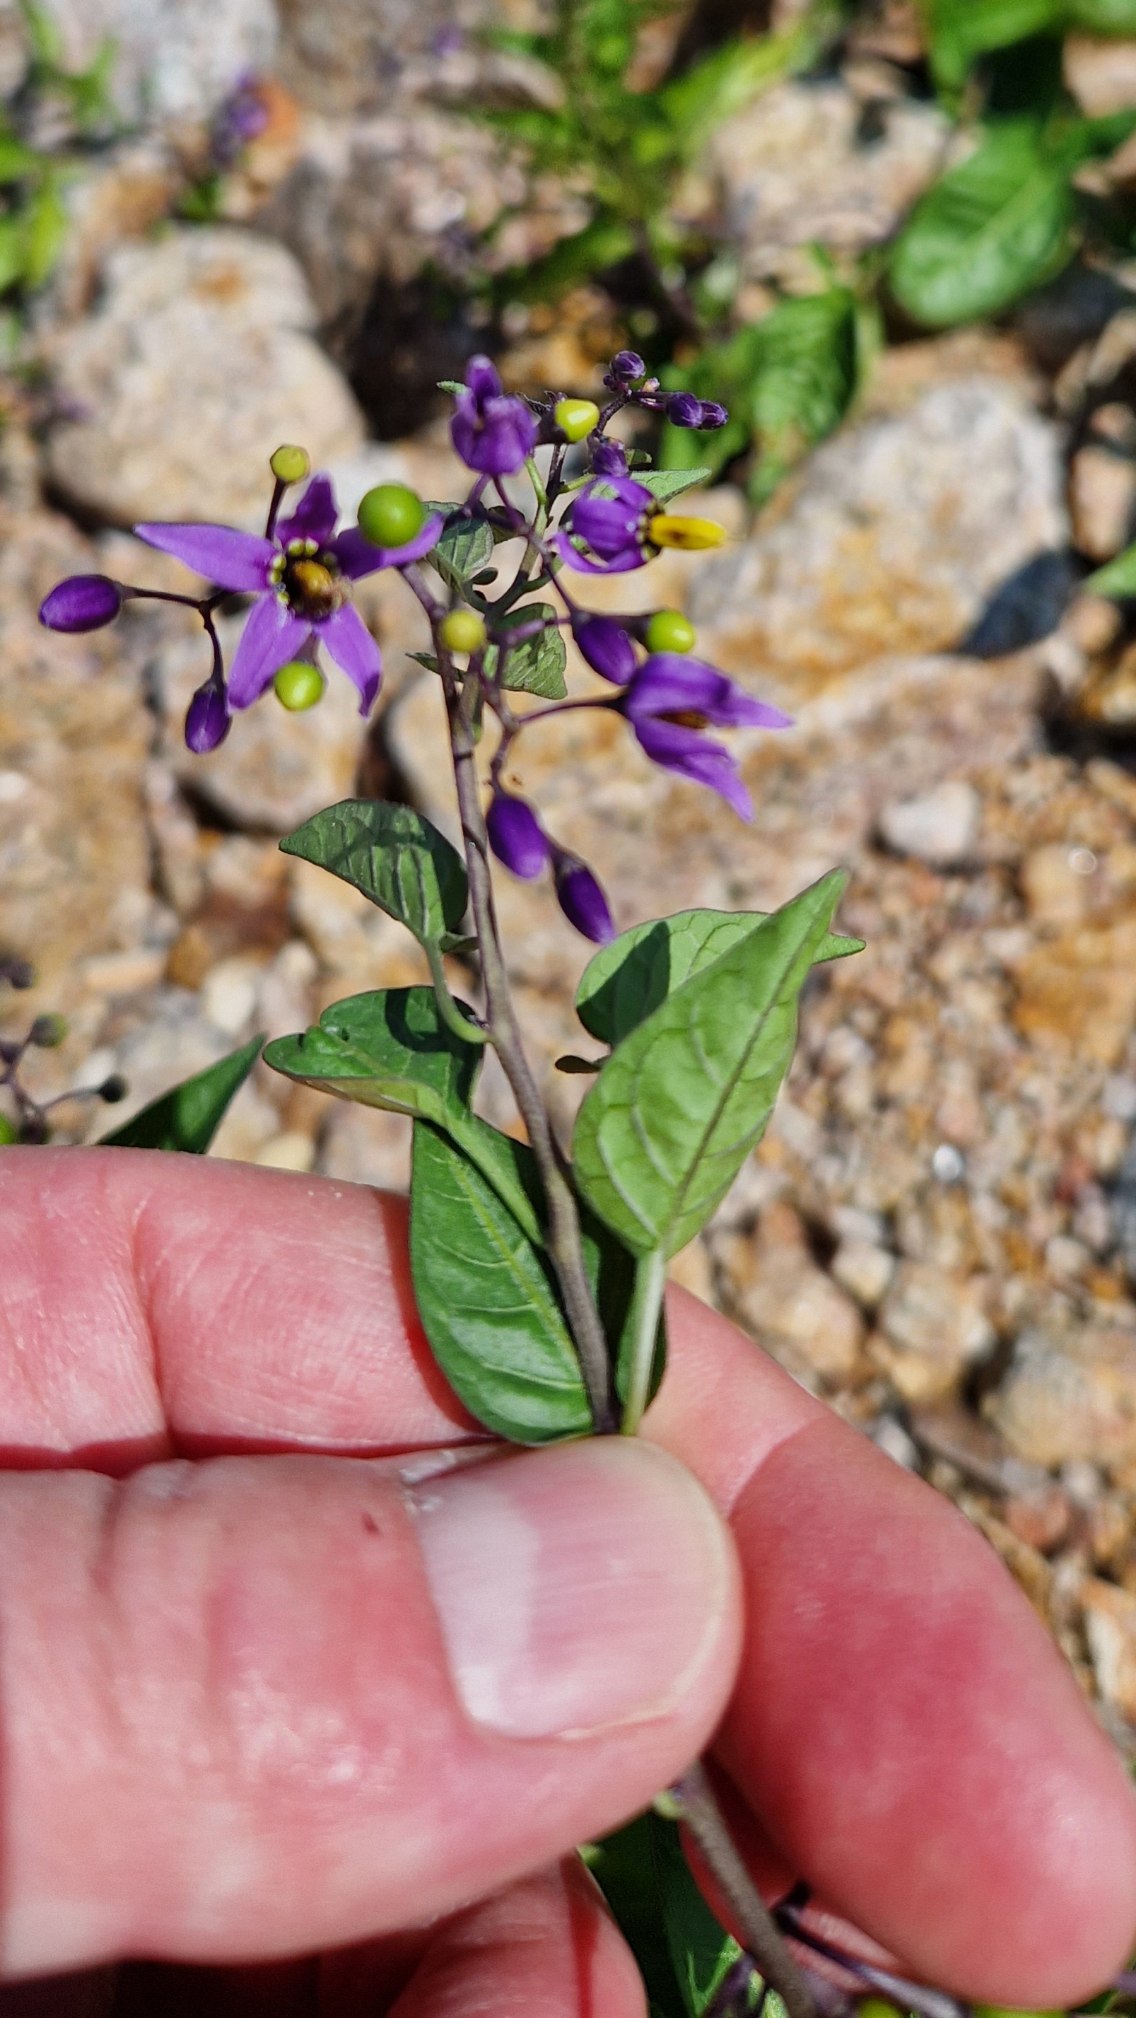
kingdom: Plantae
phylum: Tracheophyta
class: Magnoliopsida
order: Solanales
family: Solanaceae
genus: Solanum
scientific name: Solanum dulcamara
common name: Bittersød natskygge
